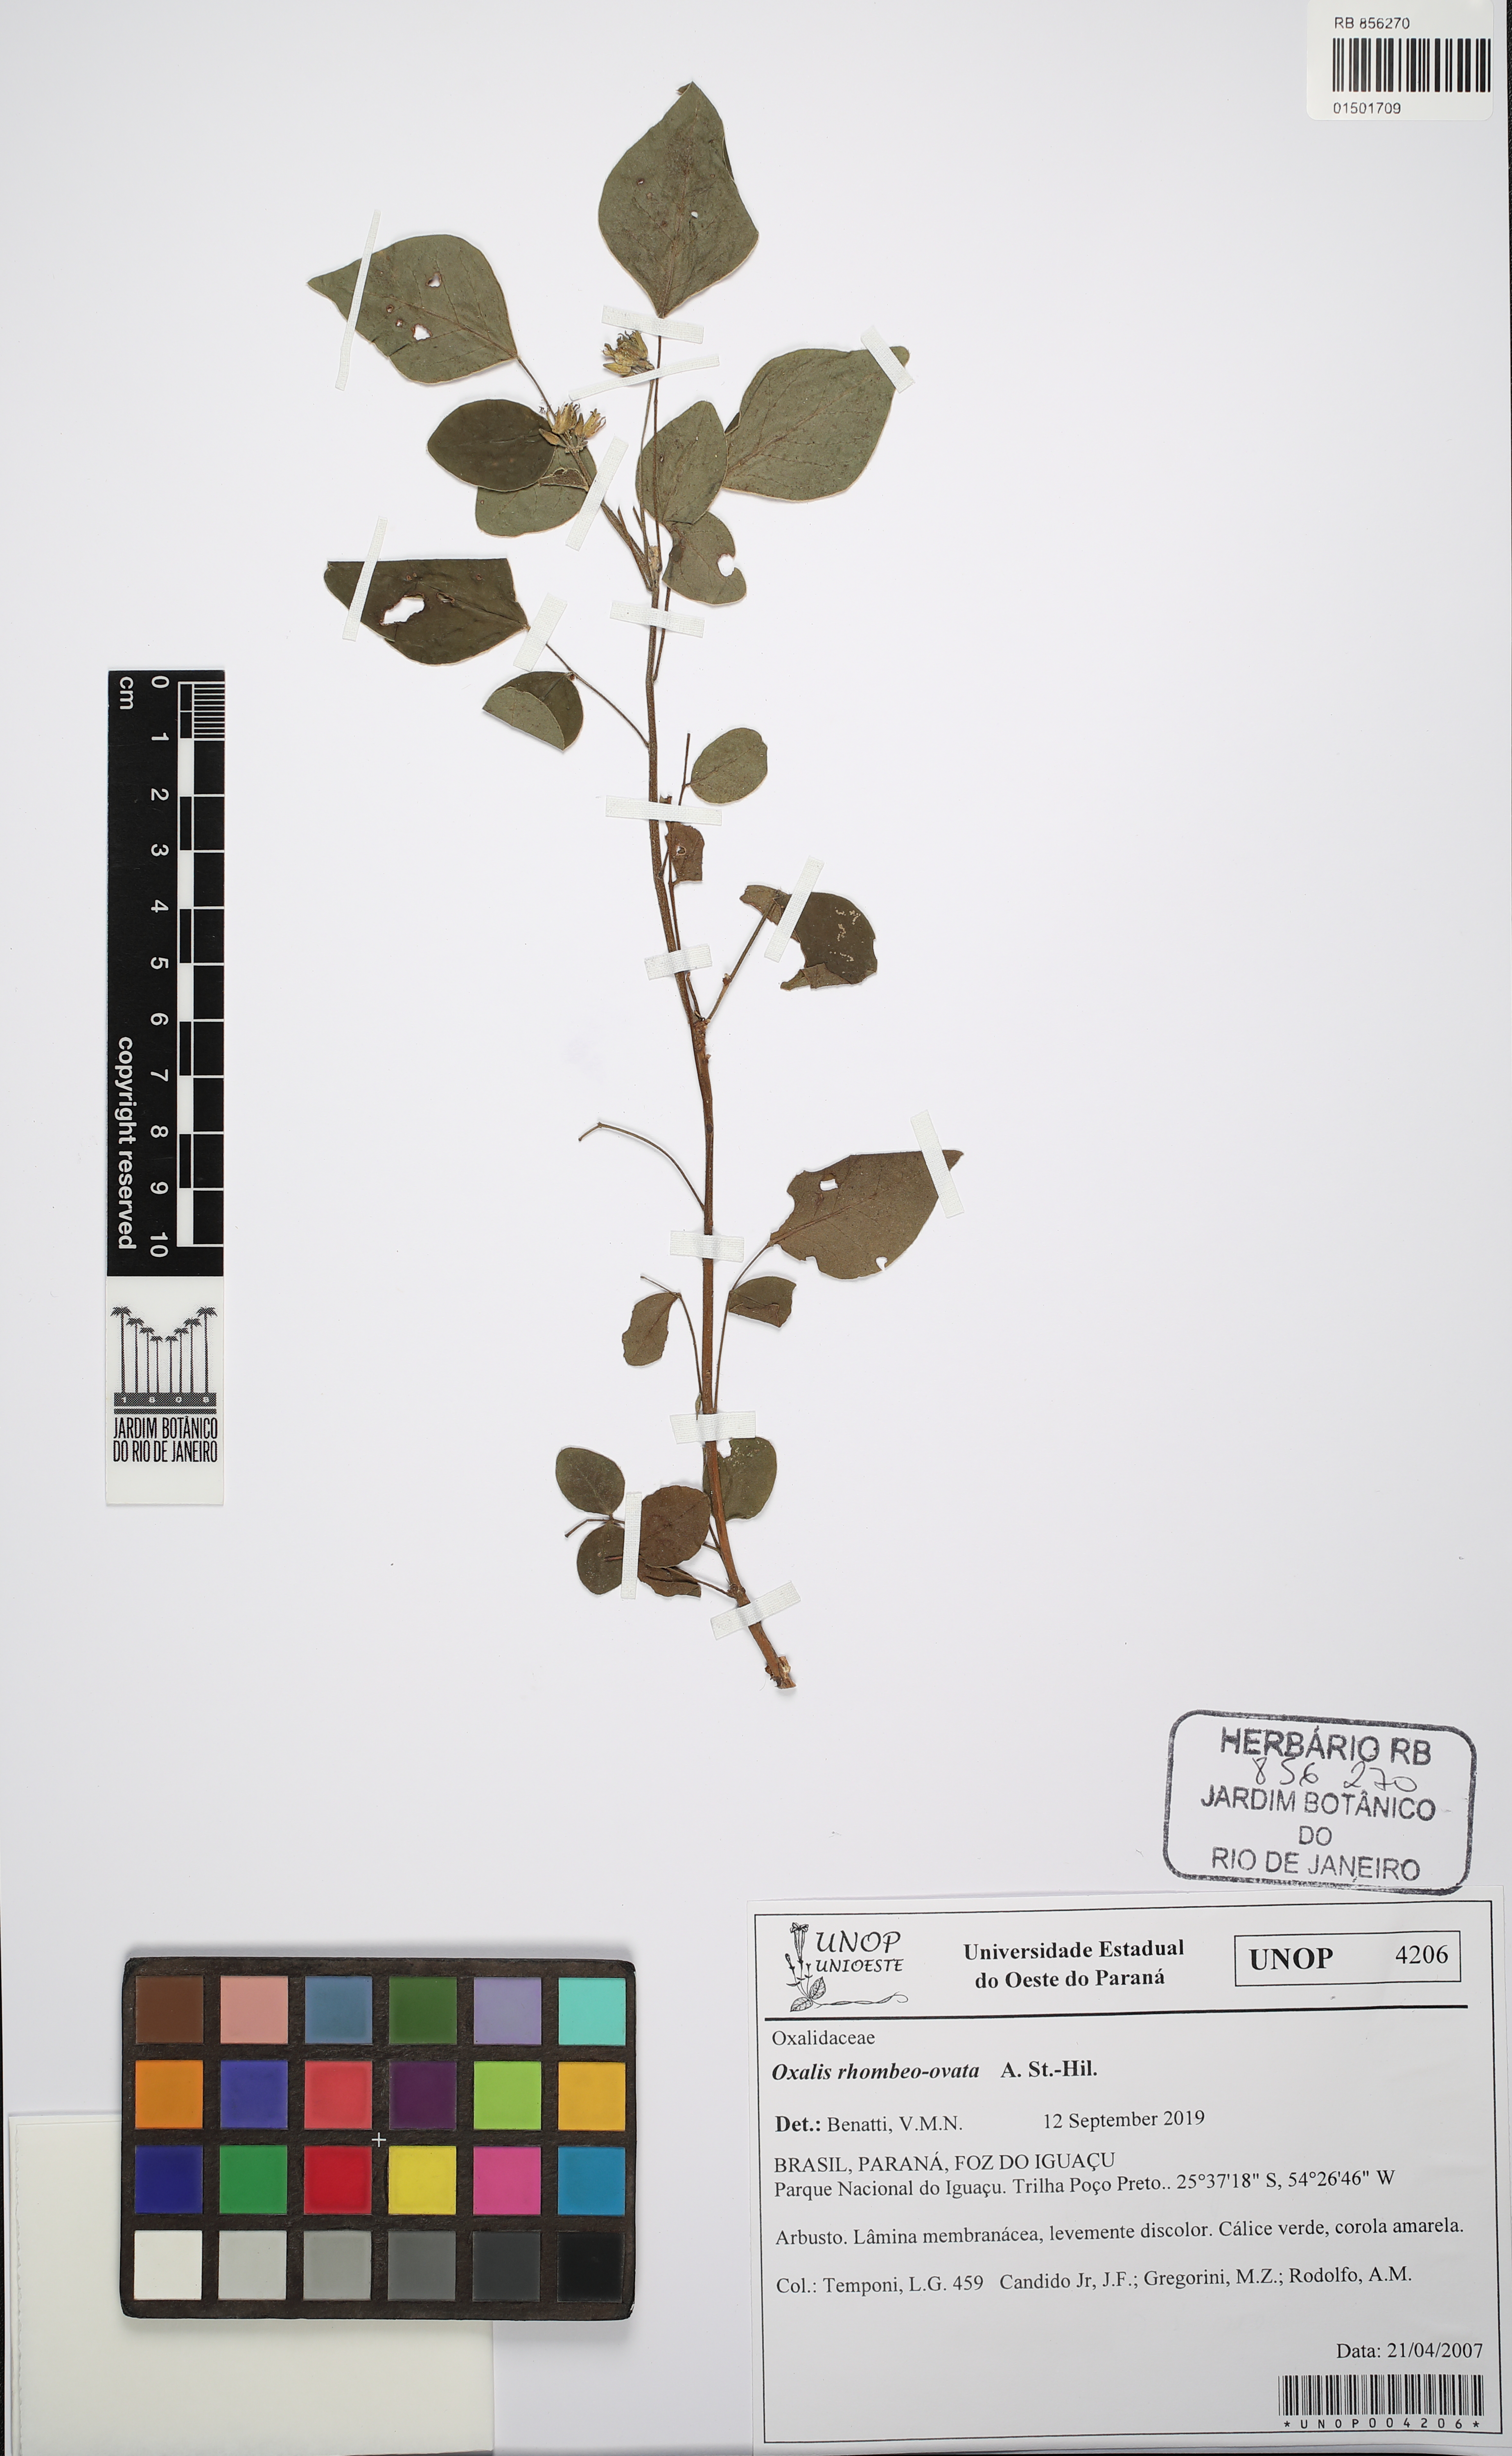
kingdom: Plantae
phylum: Tracheophyta
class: Magnoliopsida
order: Oxalidales
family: Oxalidaceae
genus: Oxalis
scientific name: Oxalis rhombeo-ovata
